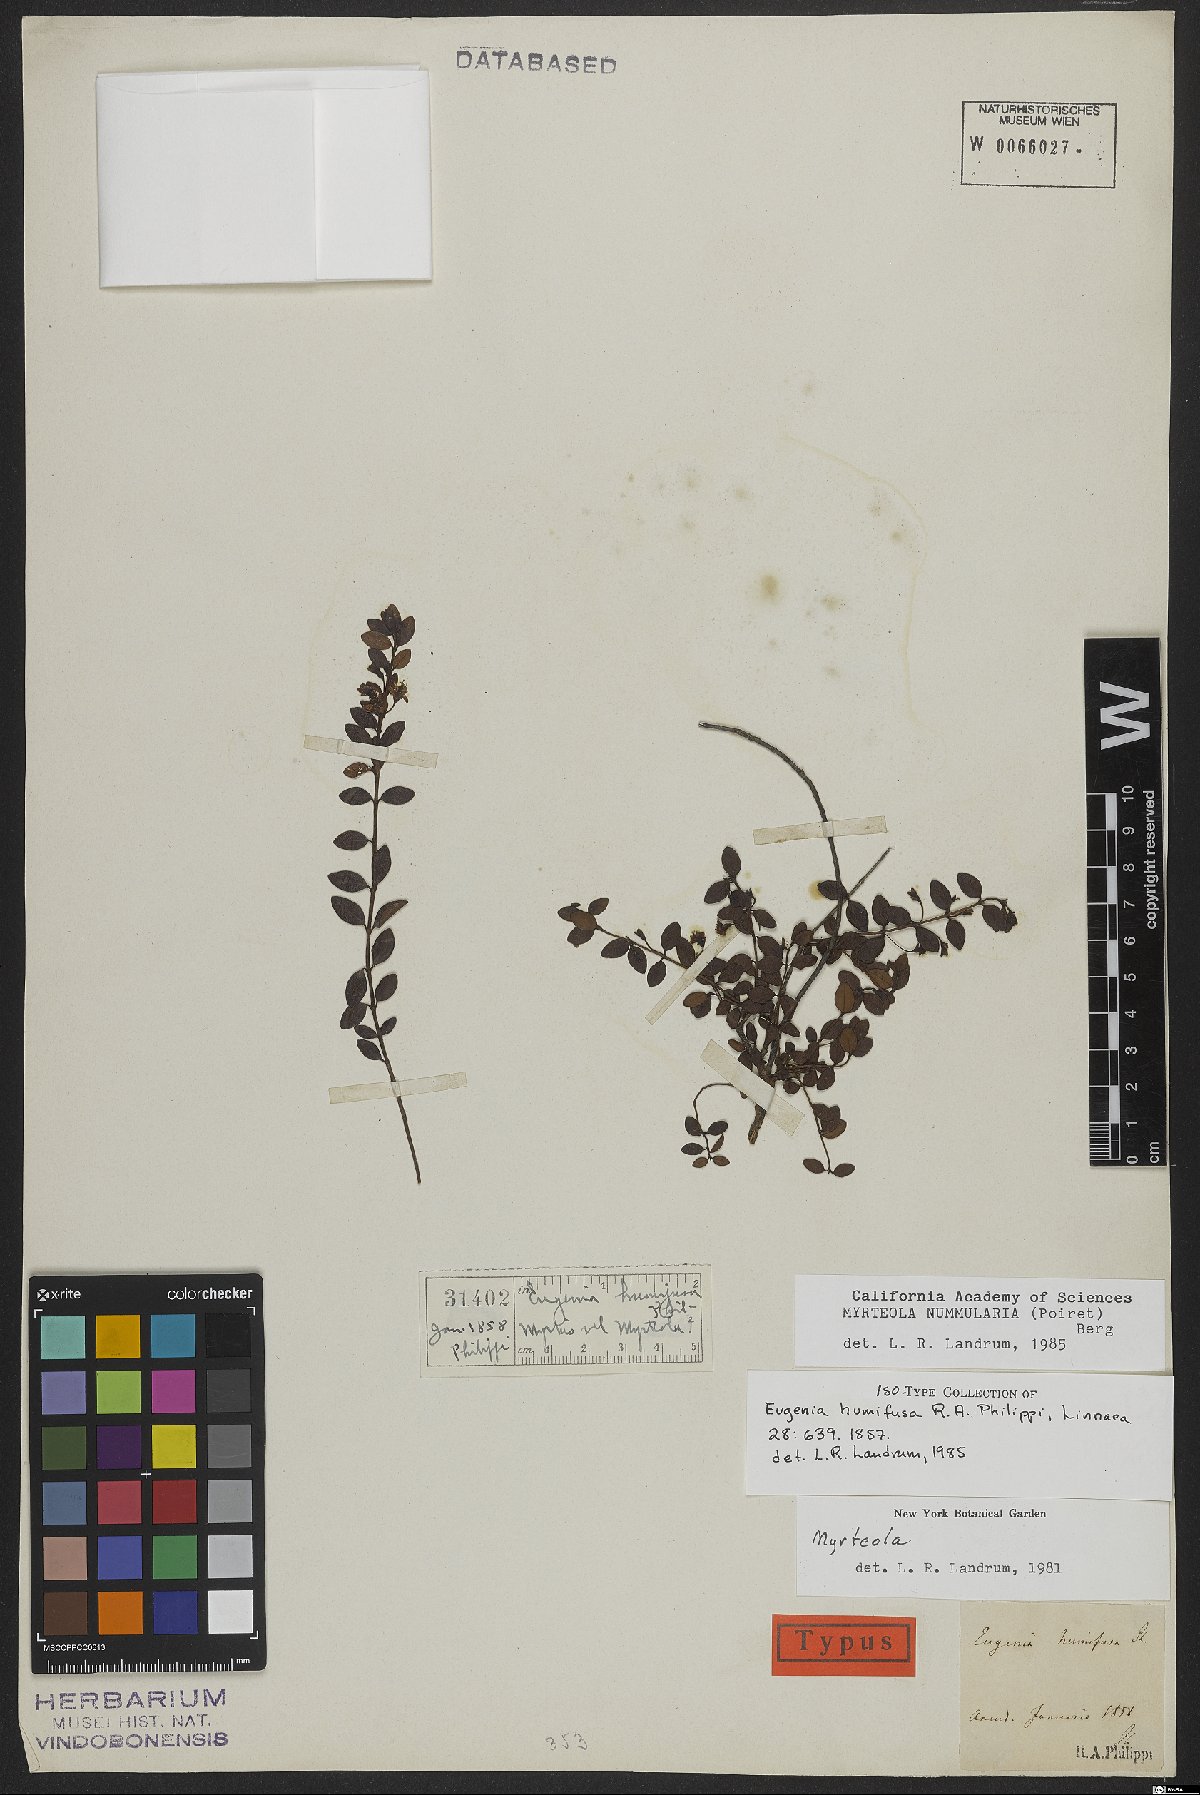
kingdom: Plantae
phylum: Tracheophyta
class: Magnoliopsida
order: Myrtales
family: Myrtaceae
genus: Myrteola
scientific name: Myrteola nummularia
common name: Cranberry-myrtle
